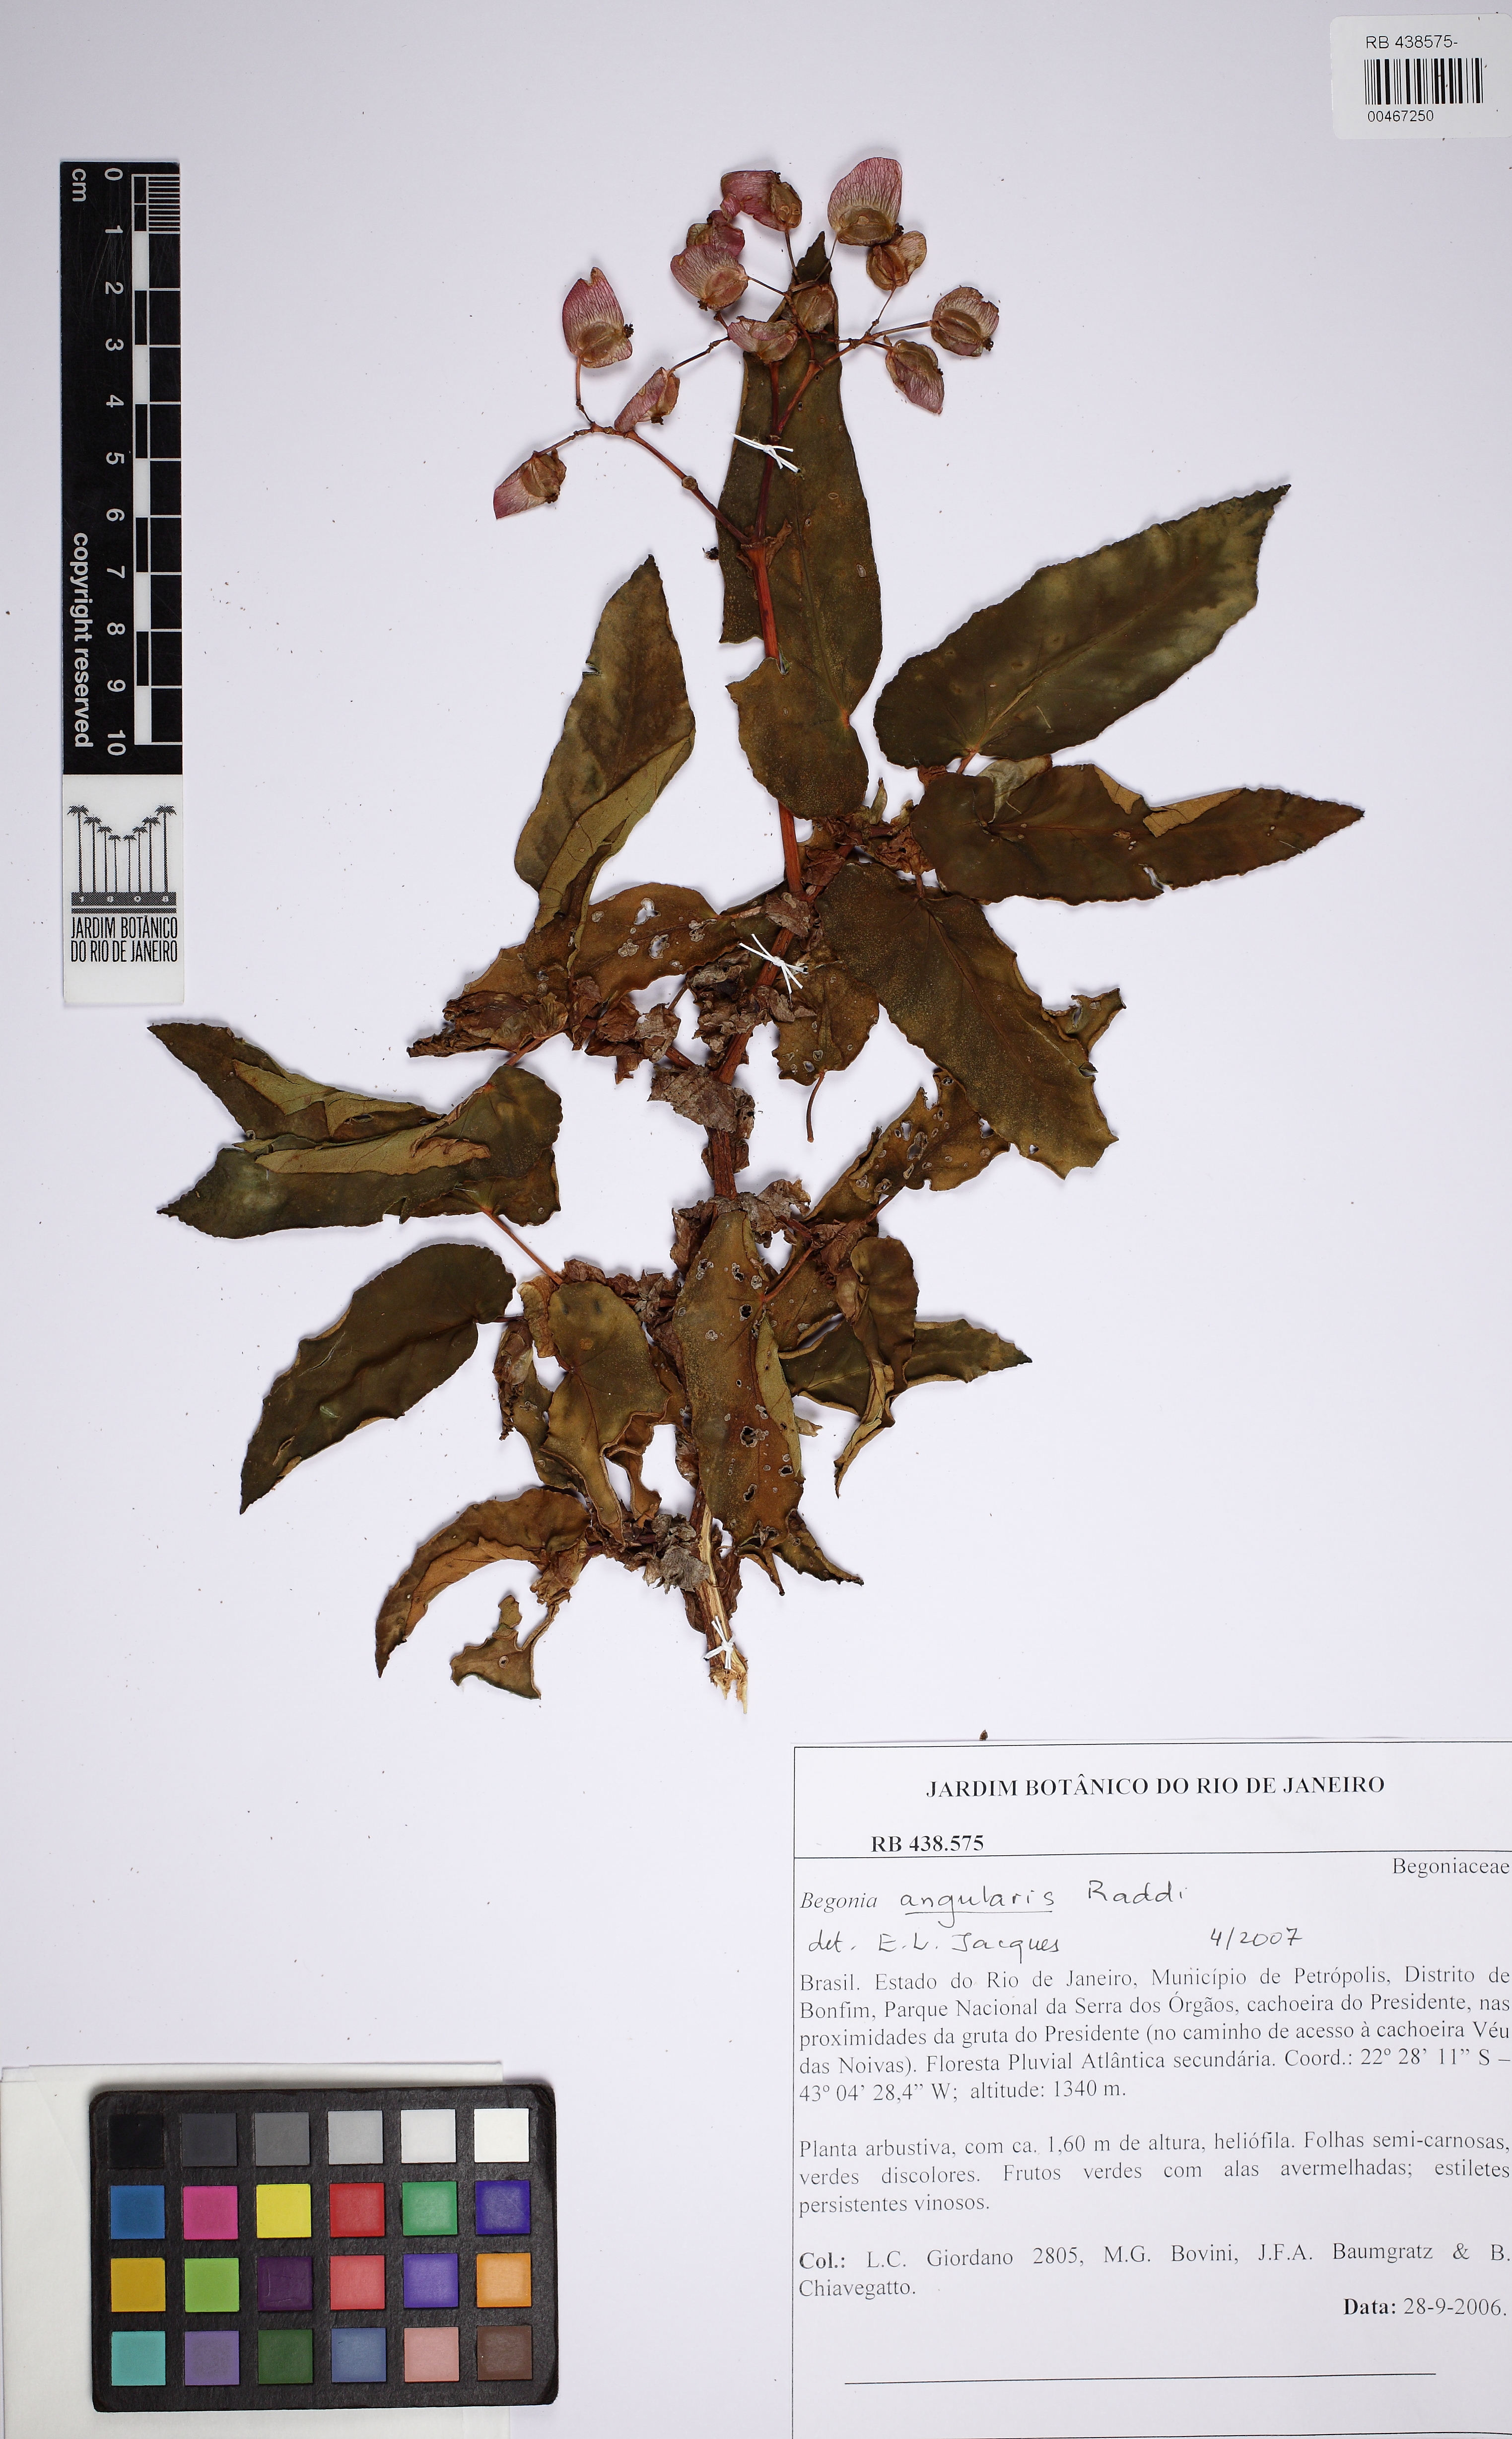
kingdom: Plantae
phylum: Tracheophyta
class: Magnoliopsida
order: Cucurbitales
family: Begoniaceae
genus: Begonia
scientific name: Begonia angularis
